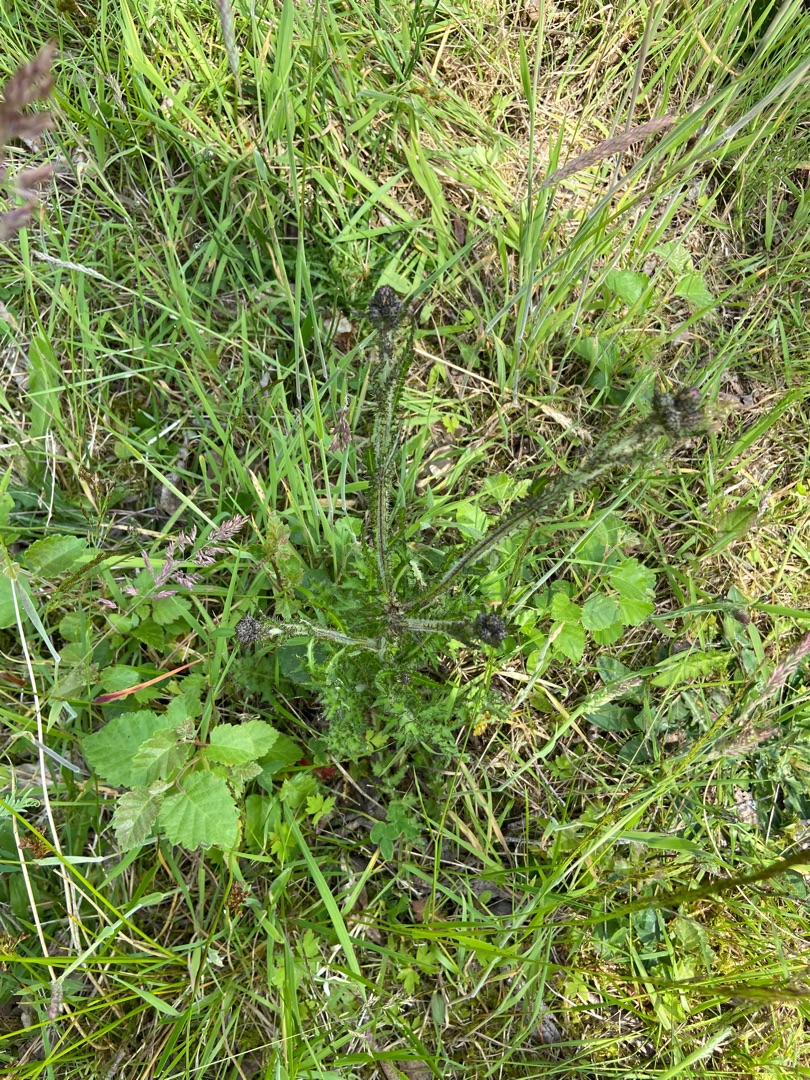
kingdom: Plantae
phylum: Tracheophyta
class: Magnoliopsida
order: Asterales
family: Asteraceae
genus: Cirsium
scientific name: Cirsium palustre
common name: Kær-tidsel
